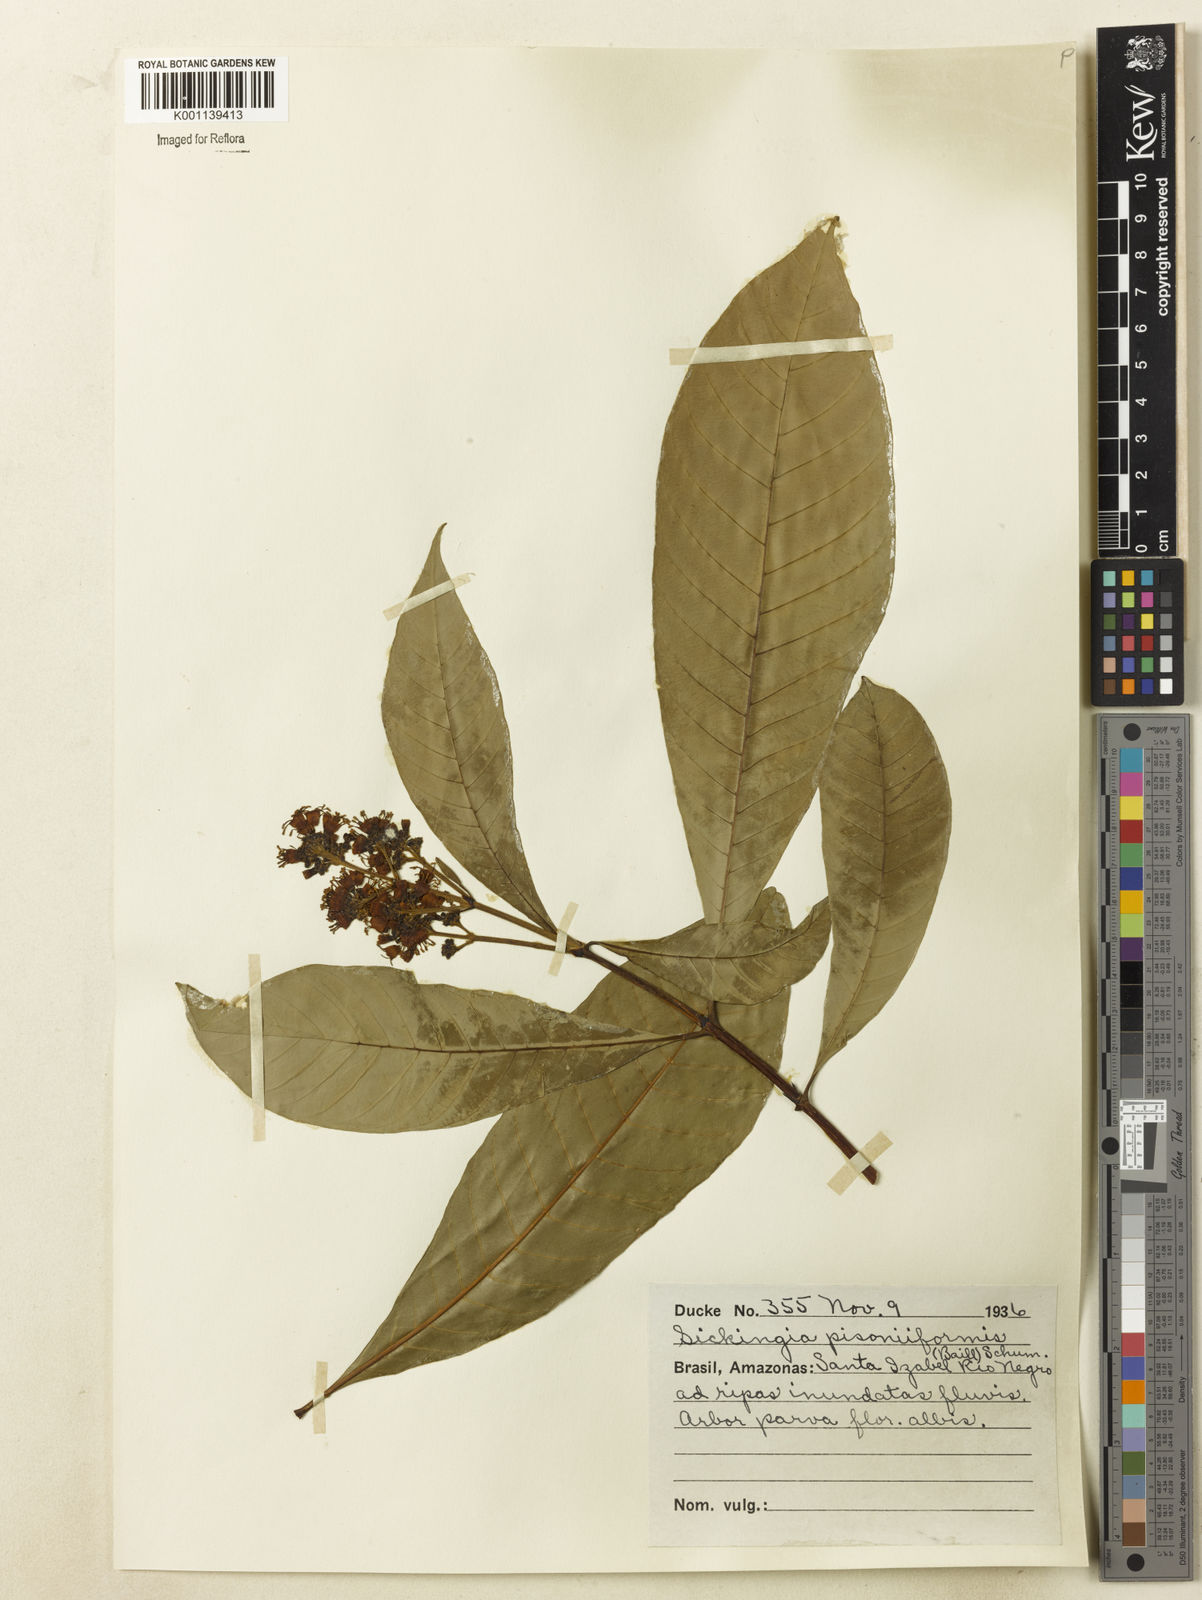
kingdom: Plantae
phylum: Tracheophyta
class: Magnoliopsida
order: Gentianales
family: Rubiaceae
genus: Simira
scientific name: Simira podocarpa
